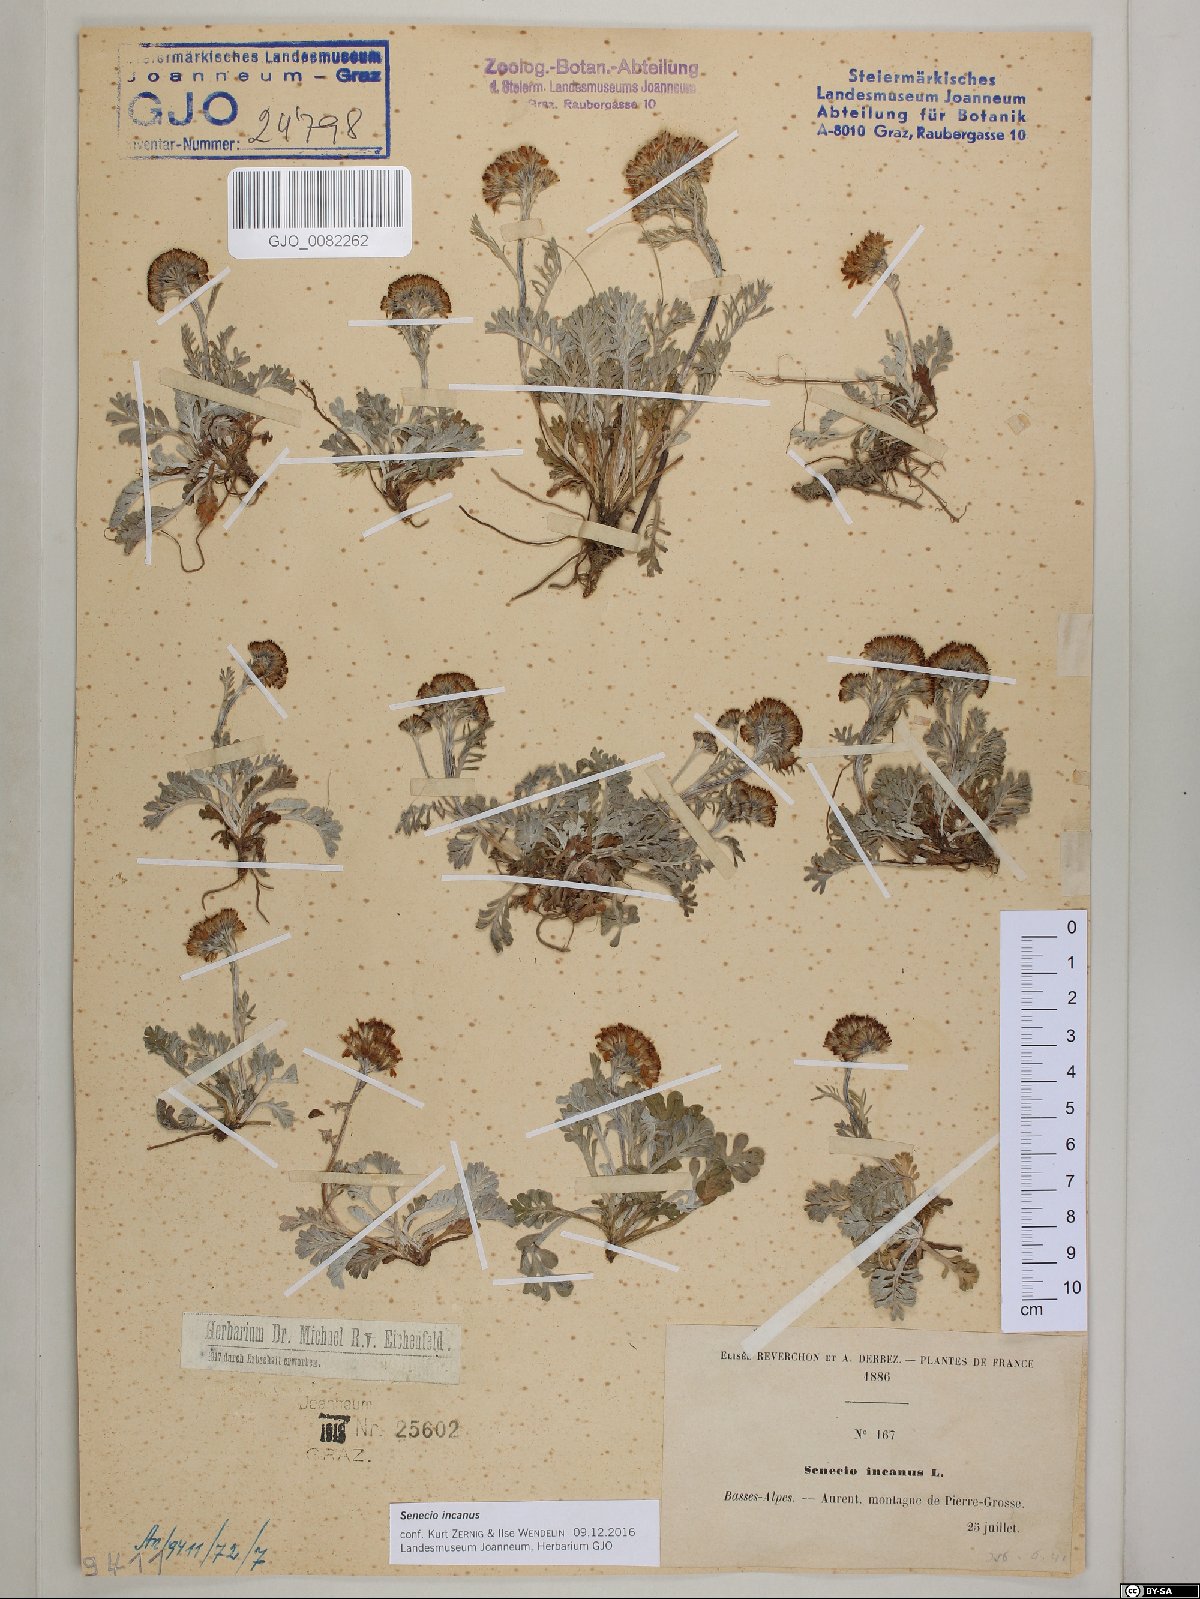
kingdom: Plantae
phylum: Tracheophyta
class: Magnoliopsida
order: Asterales
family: Asteraceae
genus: Jacobaea
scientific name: Jacobaea incana
